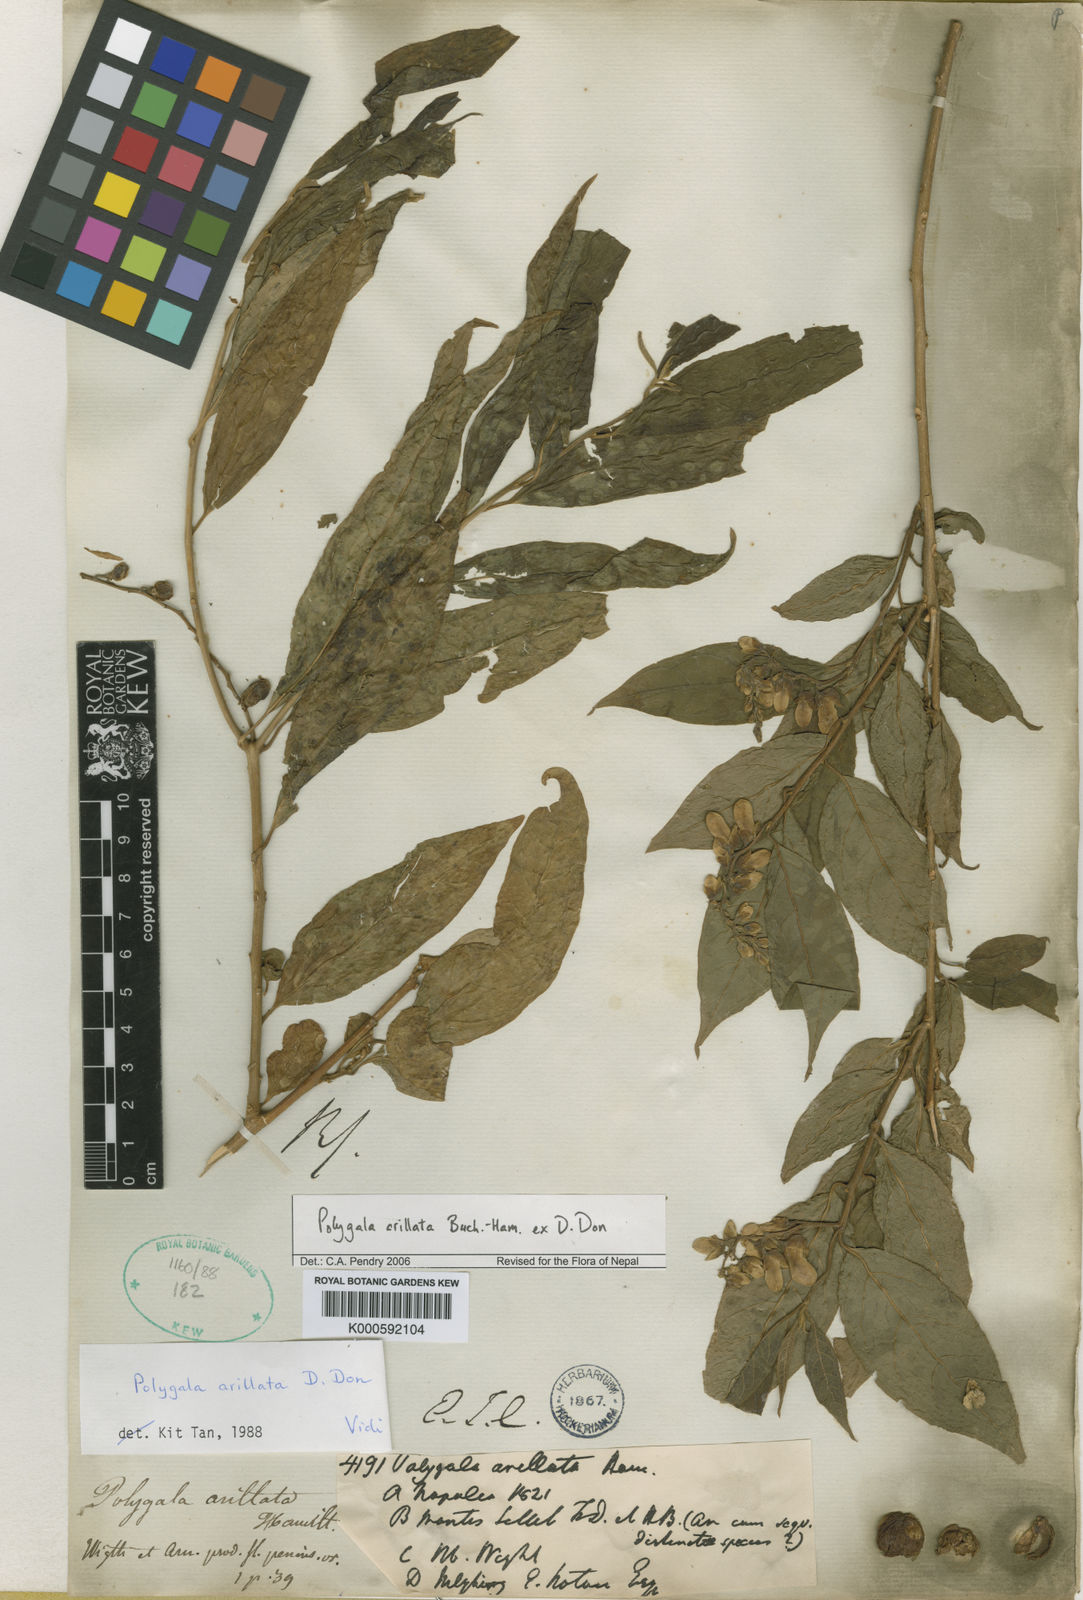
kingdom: Plantae
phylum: Tracheophyta
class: Magnoliopsida
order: Fabales
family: Polygalaceae
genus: Polygala
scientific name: Polygala arillata
